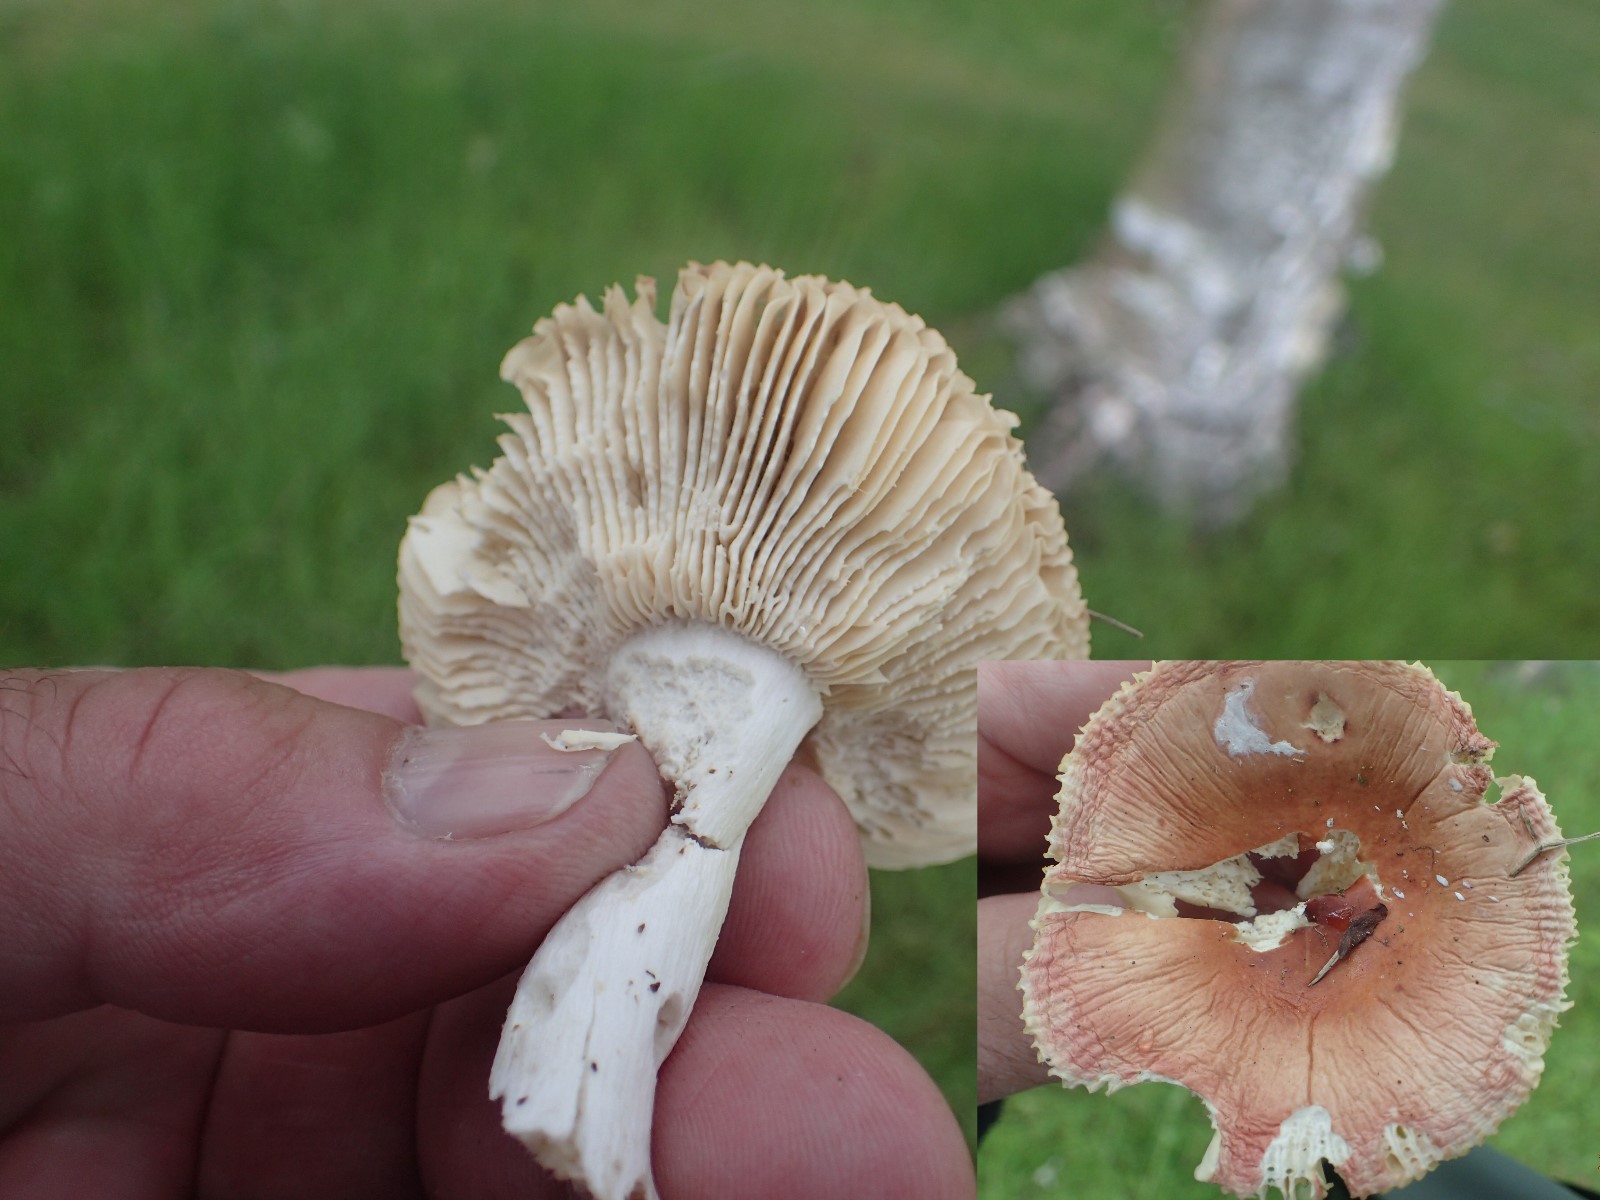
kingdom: Fungi
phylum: Basidiomycota
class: Agaricomycetes
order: Russulales
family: Russulaceae
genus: Russula
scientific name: Russula
